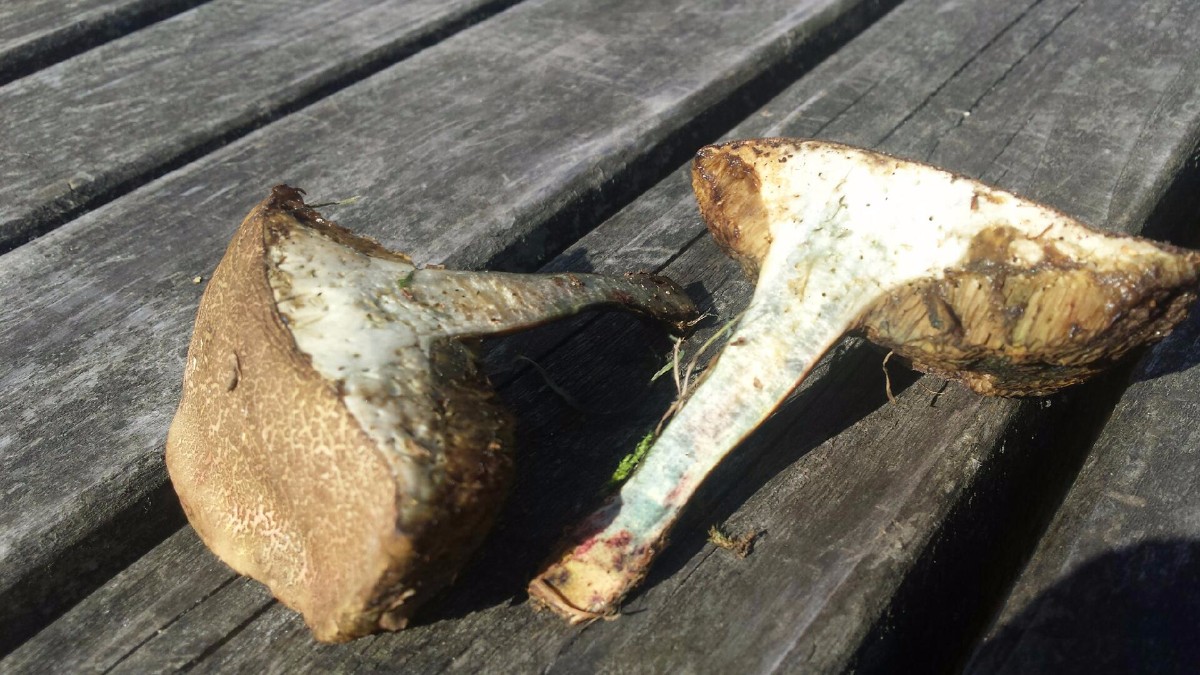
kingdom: Fungi
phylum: Basidiomycota
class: Agaricomycetes
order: Boletales
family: Boletaceae
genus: Xerocomellus
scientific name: Xerocomellus cisalpinus
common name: finsprukken rørhat
